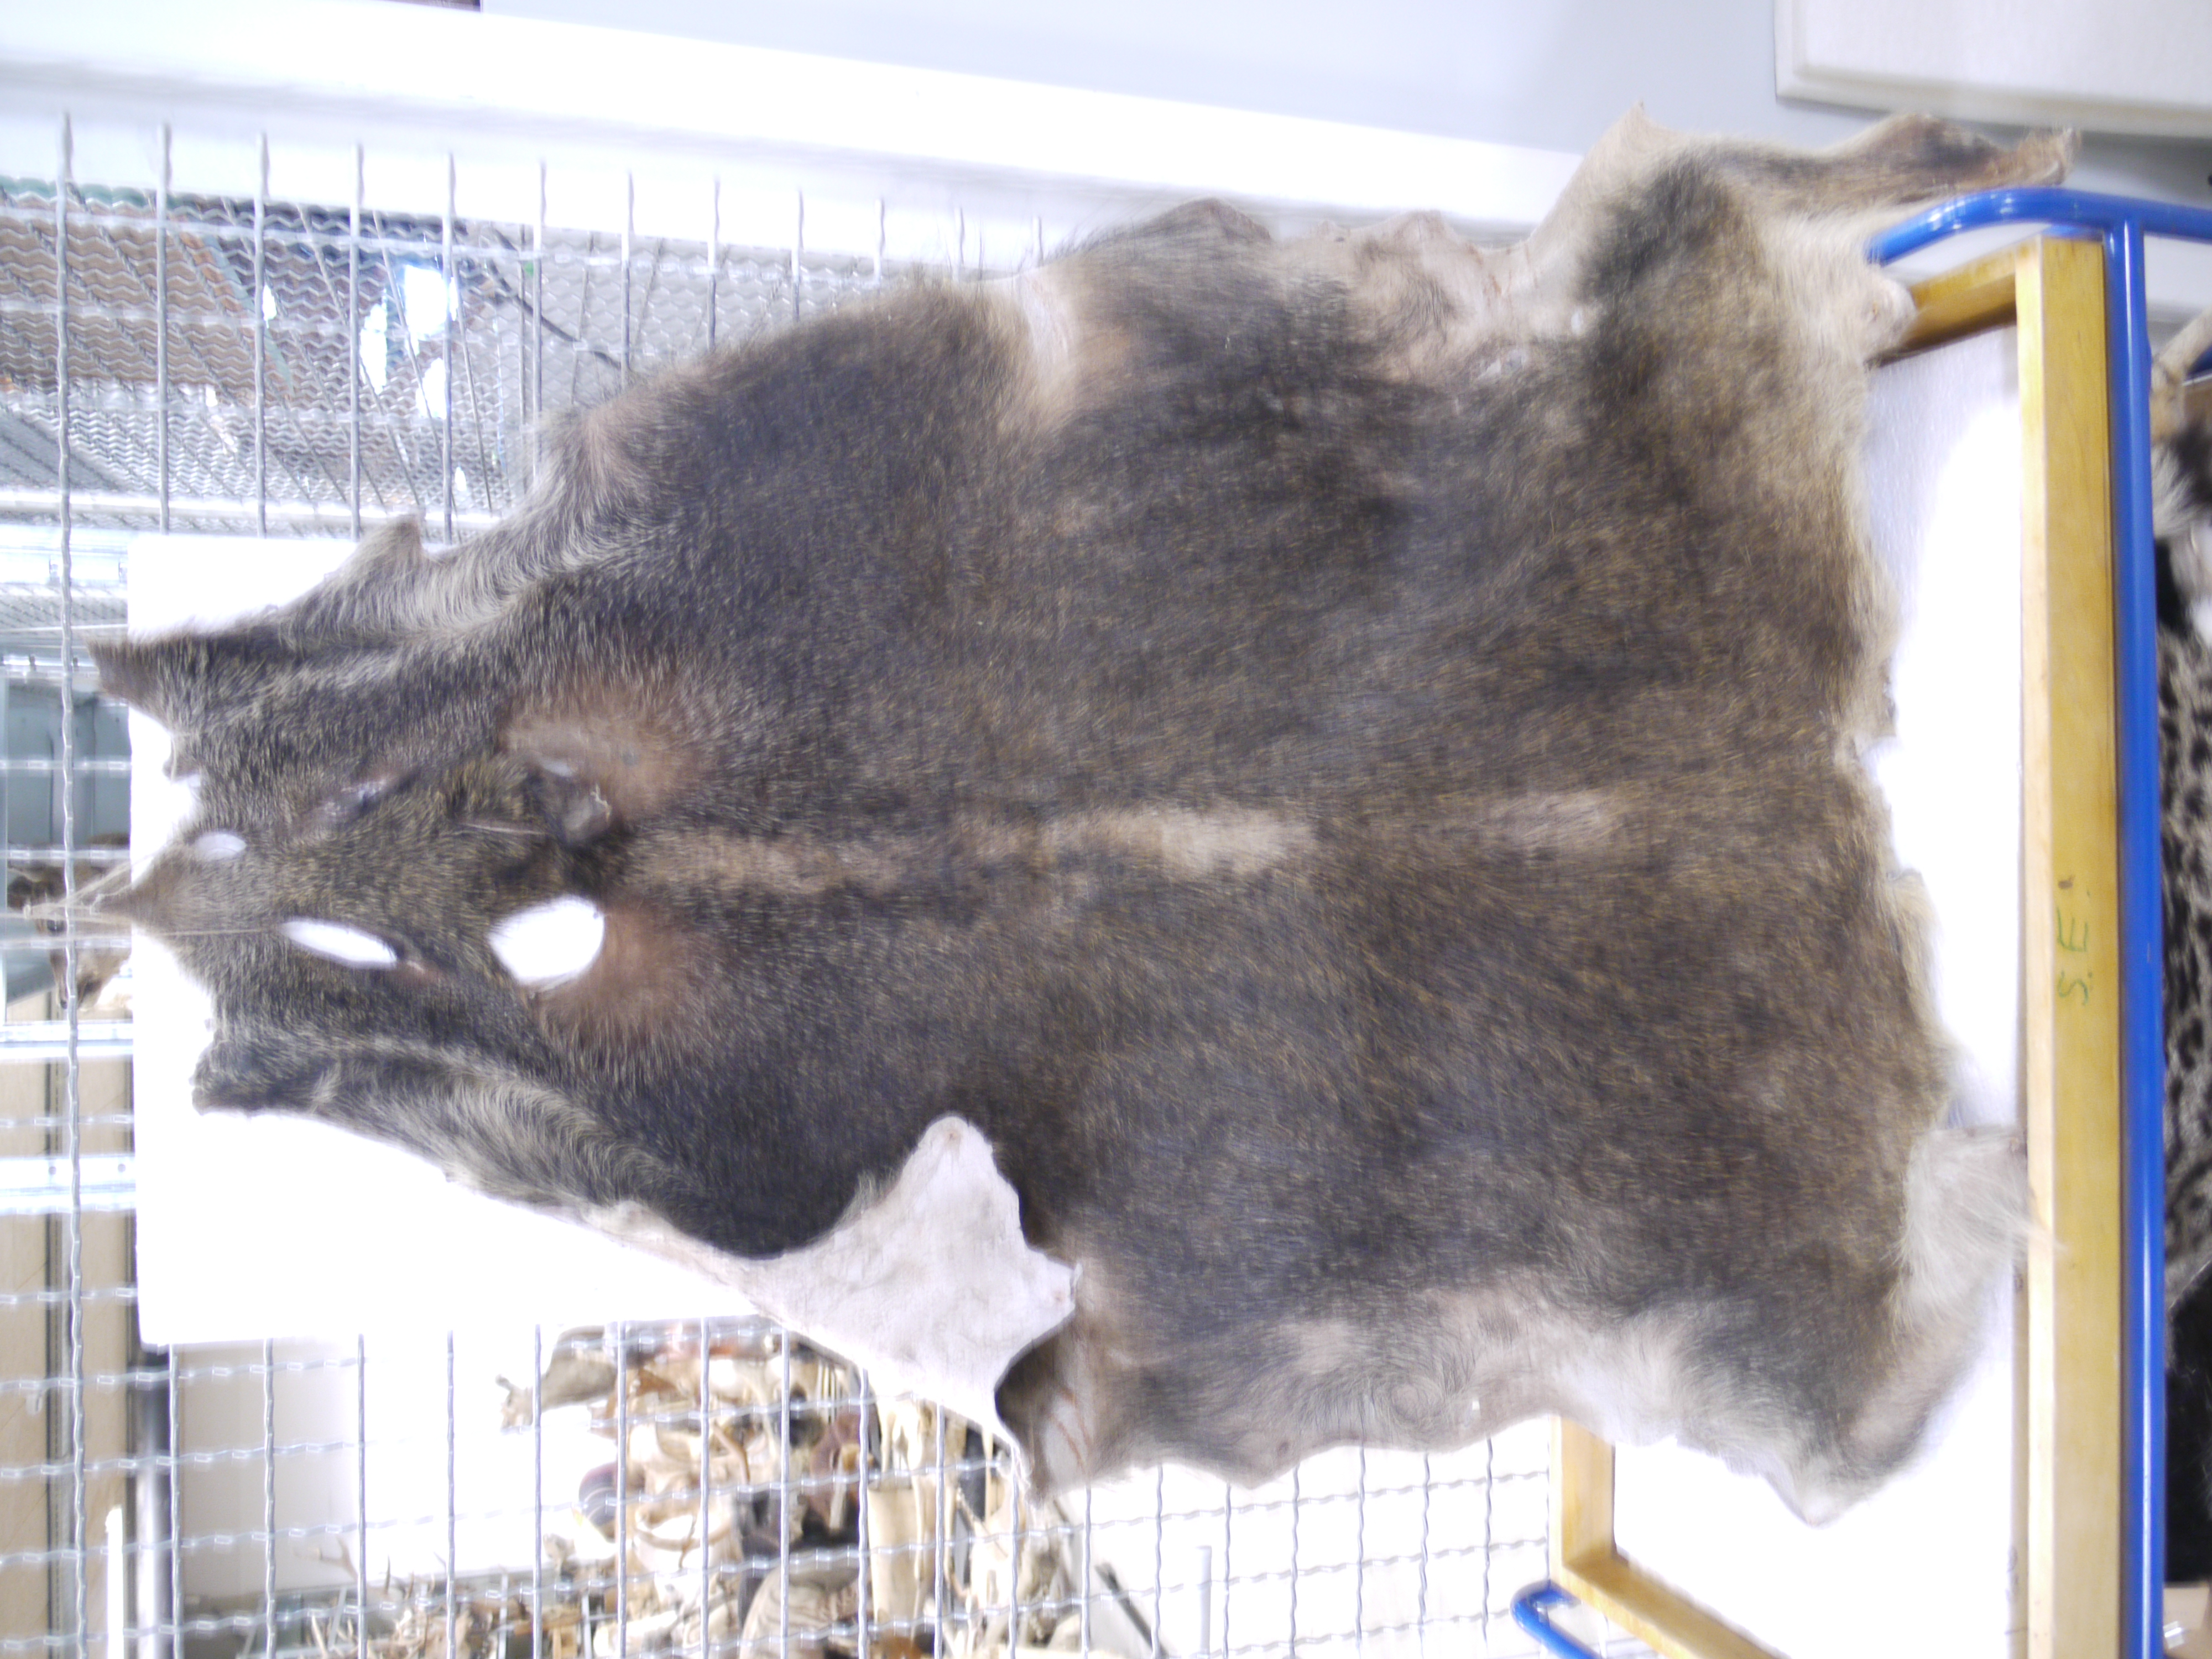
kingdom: Animalia
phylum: Chordata
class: Mammalia
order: Artiodactyla
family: Suidae
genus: Sus
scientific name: Sus scrofa
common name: Wild boar
